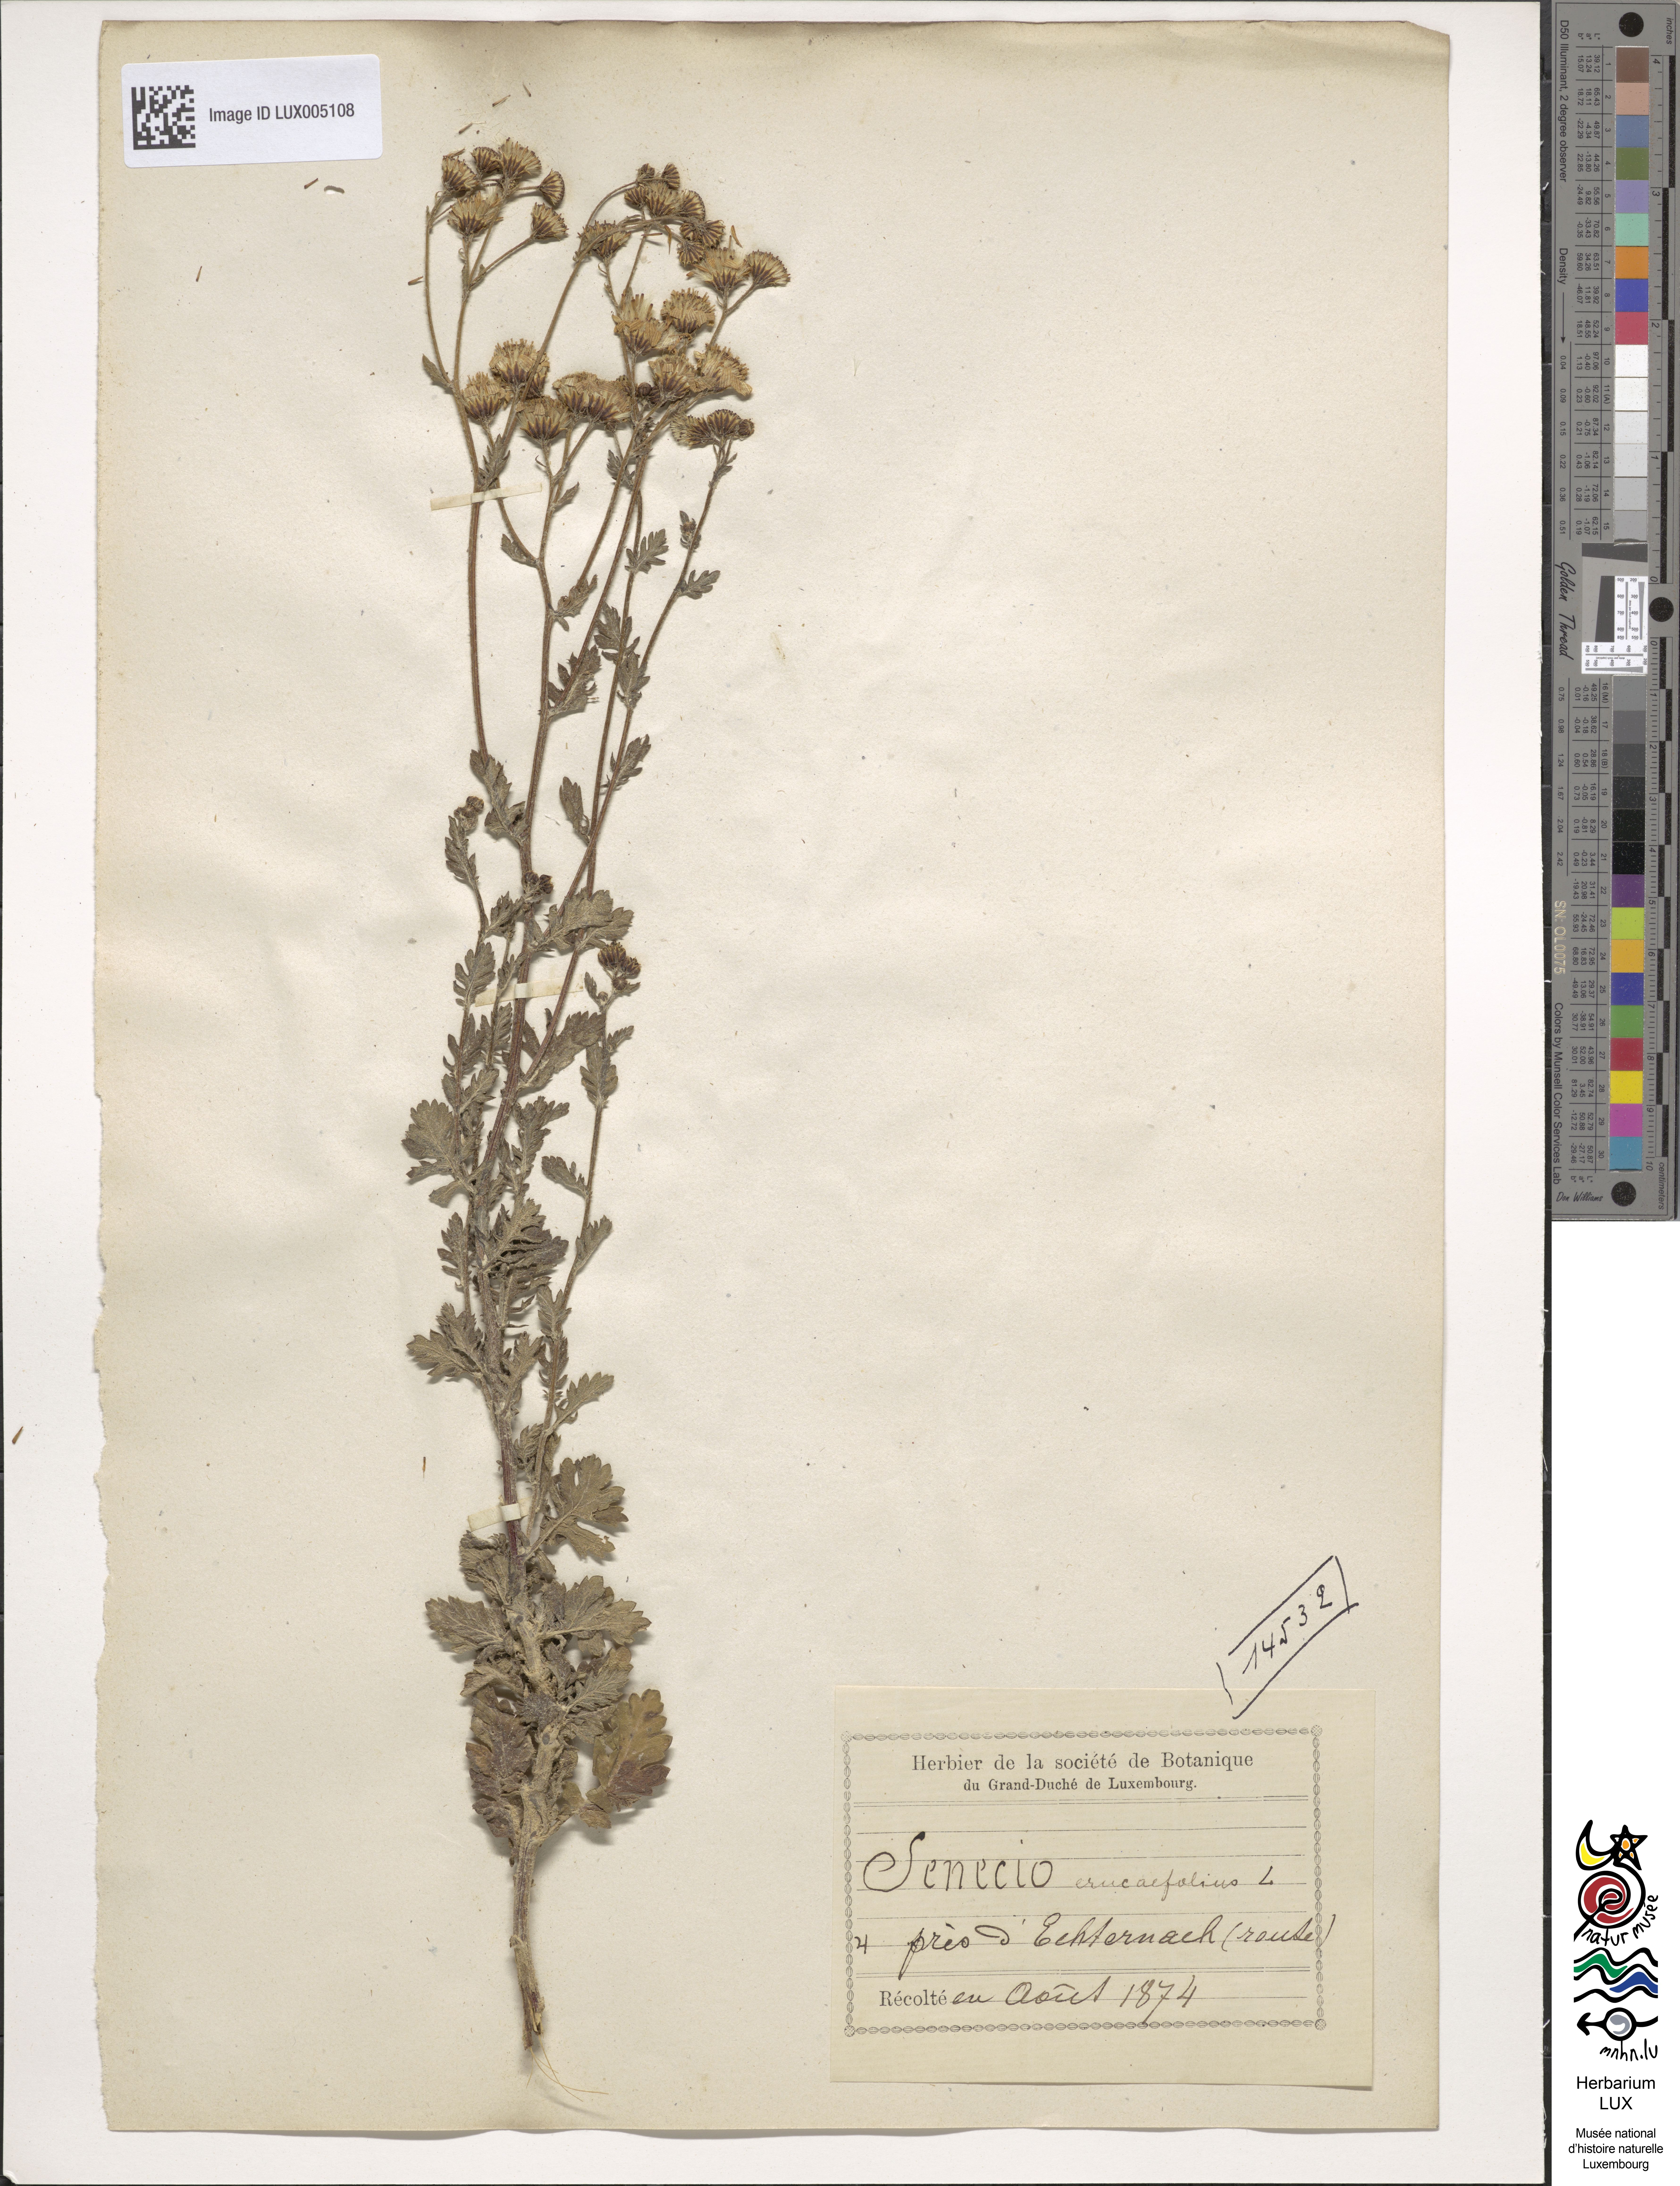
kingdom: Plantae
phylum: Tracheophyta
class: Magnoliopsida
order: Asterales
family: Asteraceae
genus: Jacobaea
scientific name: Jacobaea erucifolia
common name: Hoary ragwort
